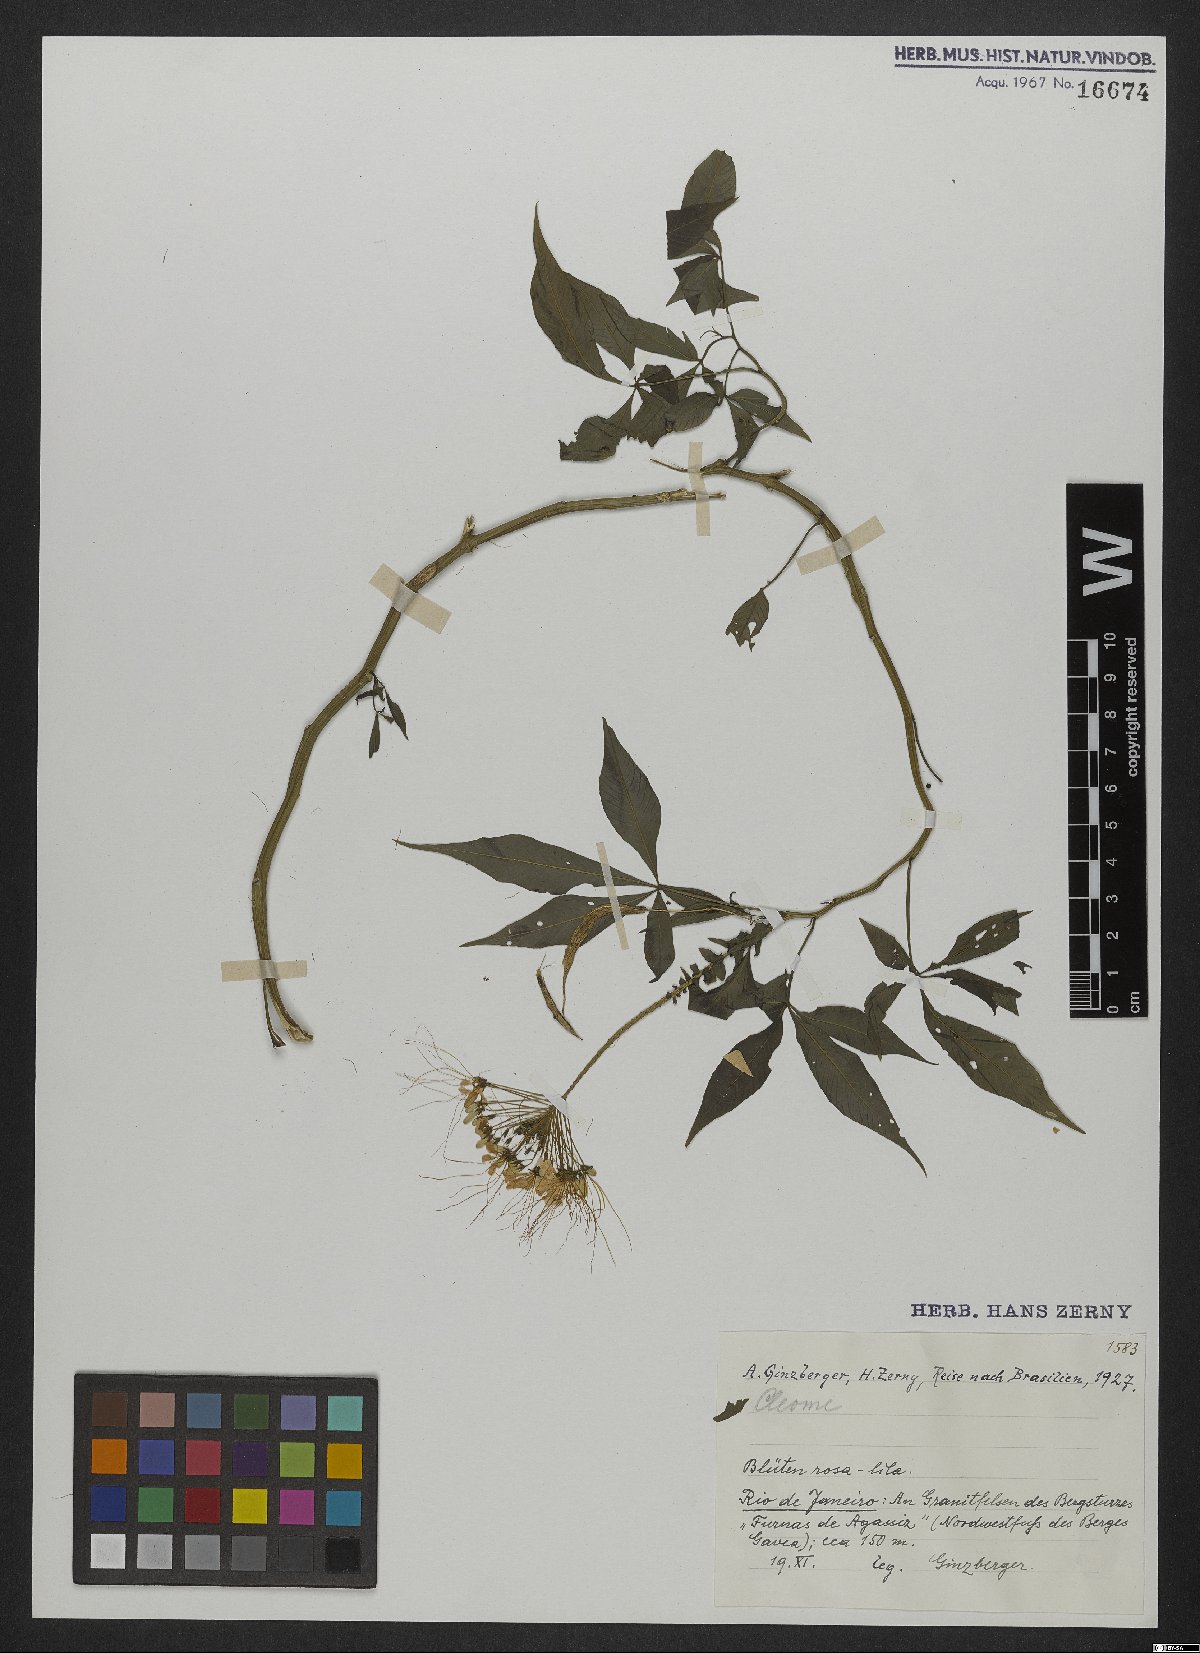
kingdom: Plantae
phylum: Tracheophyta
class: Magnoliopsida
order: Brassicales
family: Cleomaceae
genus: Cleome
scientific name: Cleome
